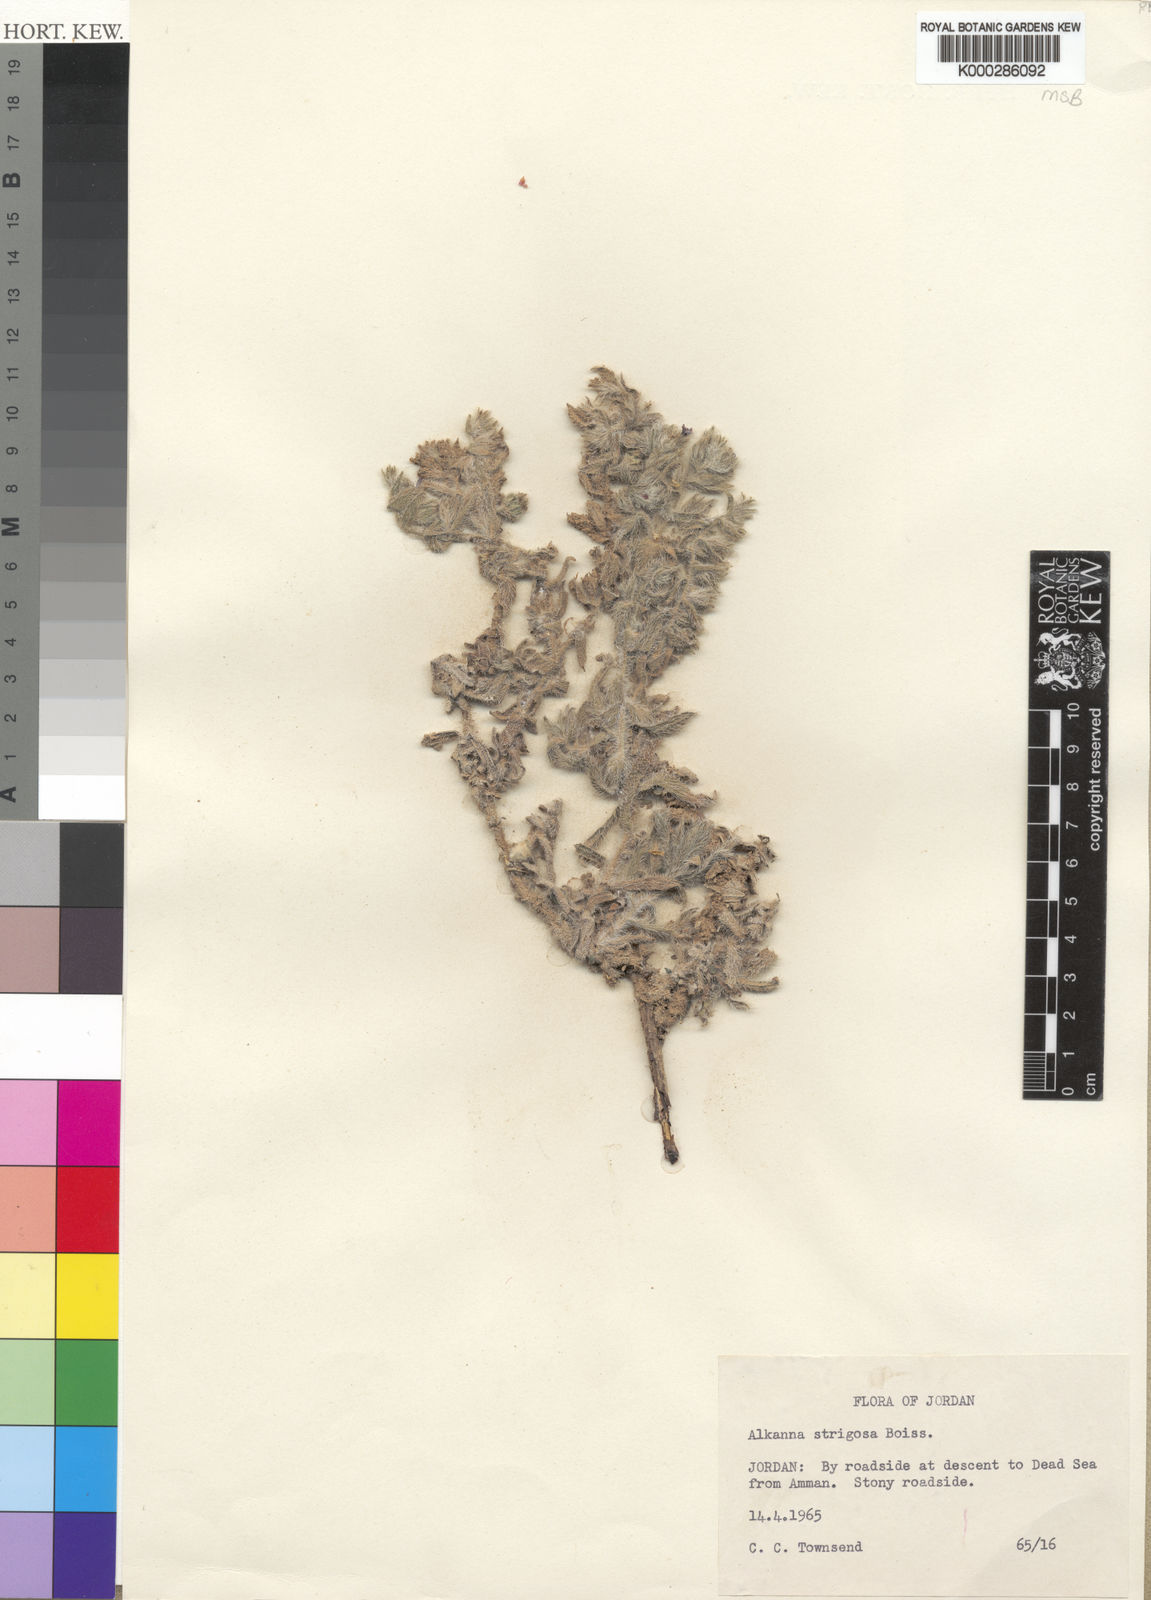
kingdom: Plantae
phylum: Tracheophyta
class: Magnoliopsida
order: Boraginales
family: Boraginaceae
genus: Alkanna
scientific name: Alkanna strigosa
